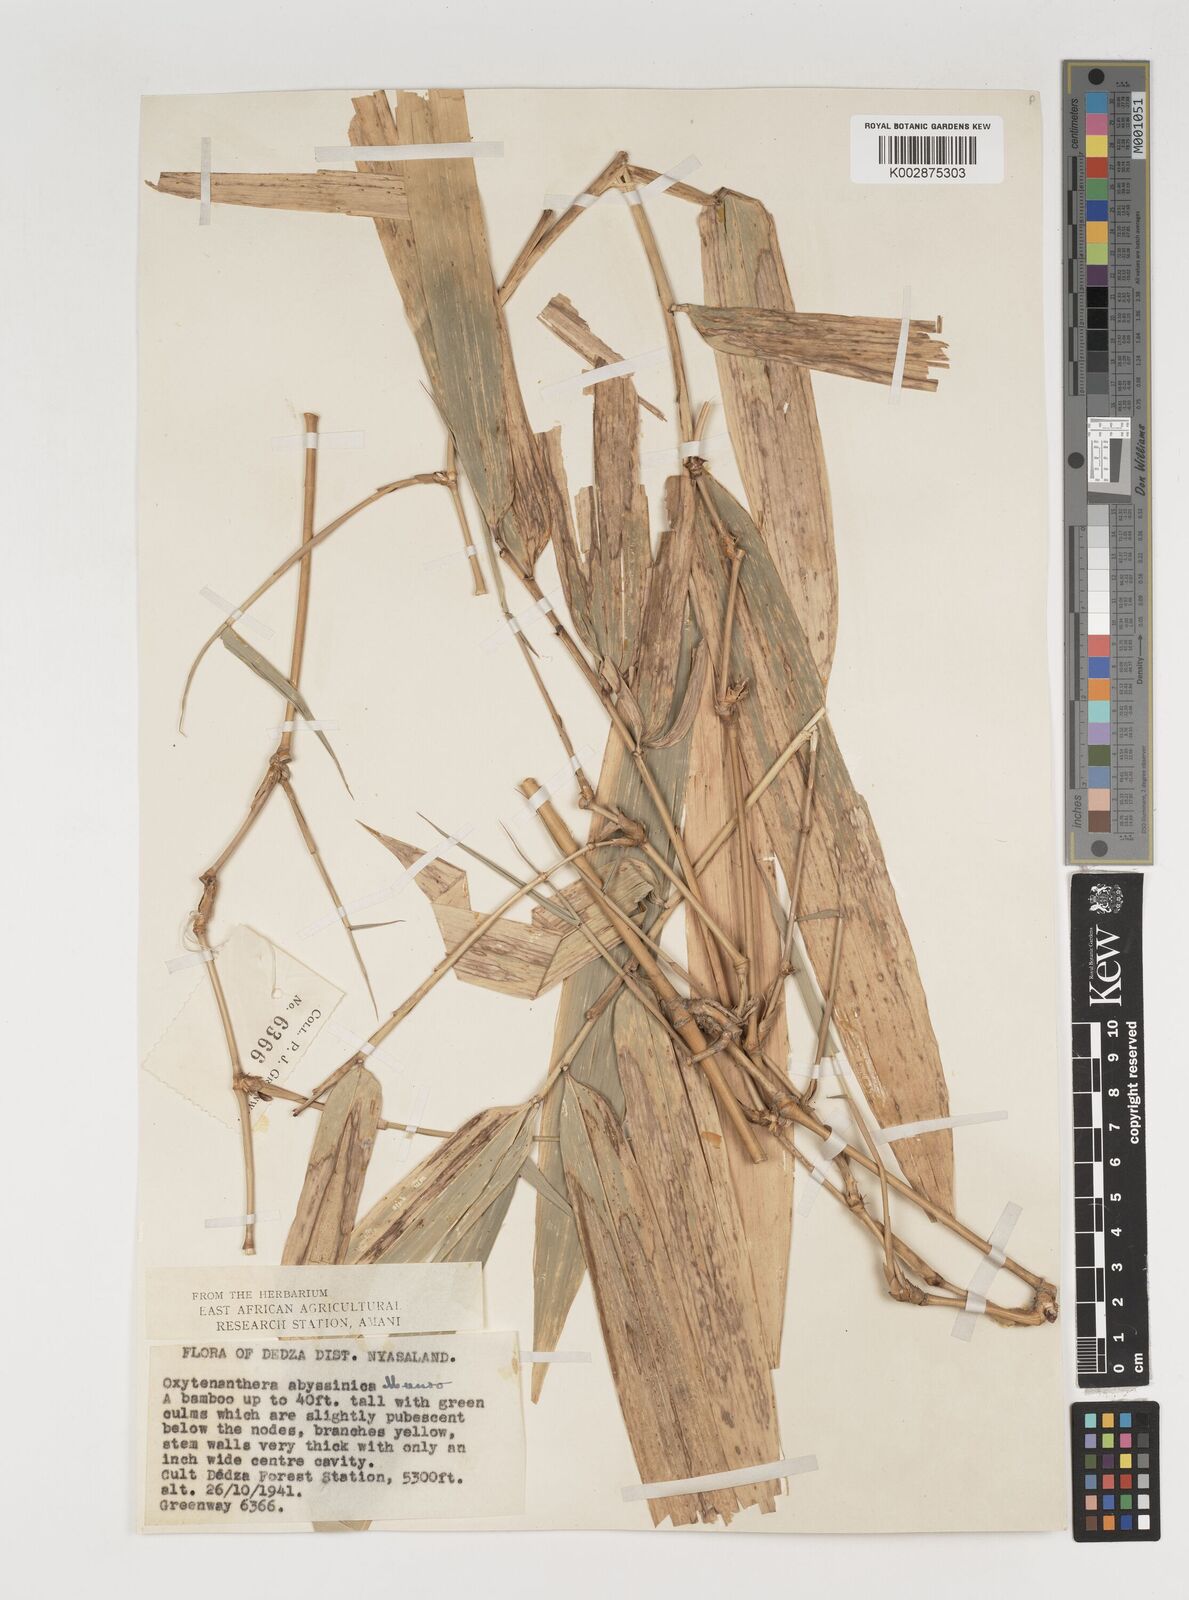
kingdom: Plantae
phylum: Tracheophyta
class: Liliopsida
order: Poales
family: Poaceae
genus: Oxytenanthera
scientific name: Oxytenanthera abyssinica
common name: Wine bamboo
